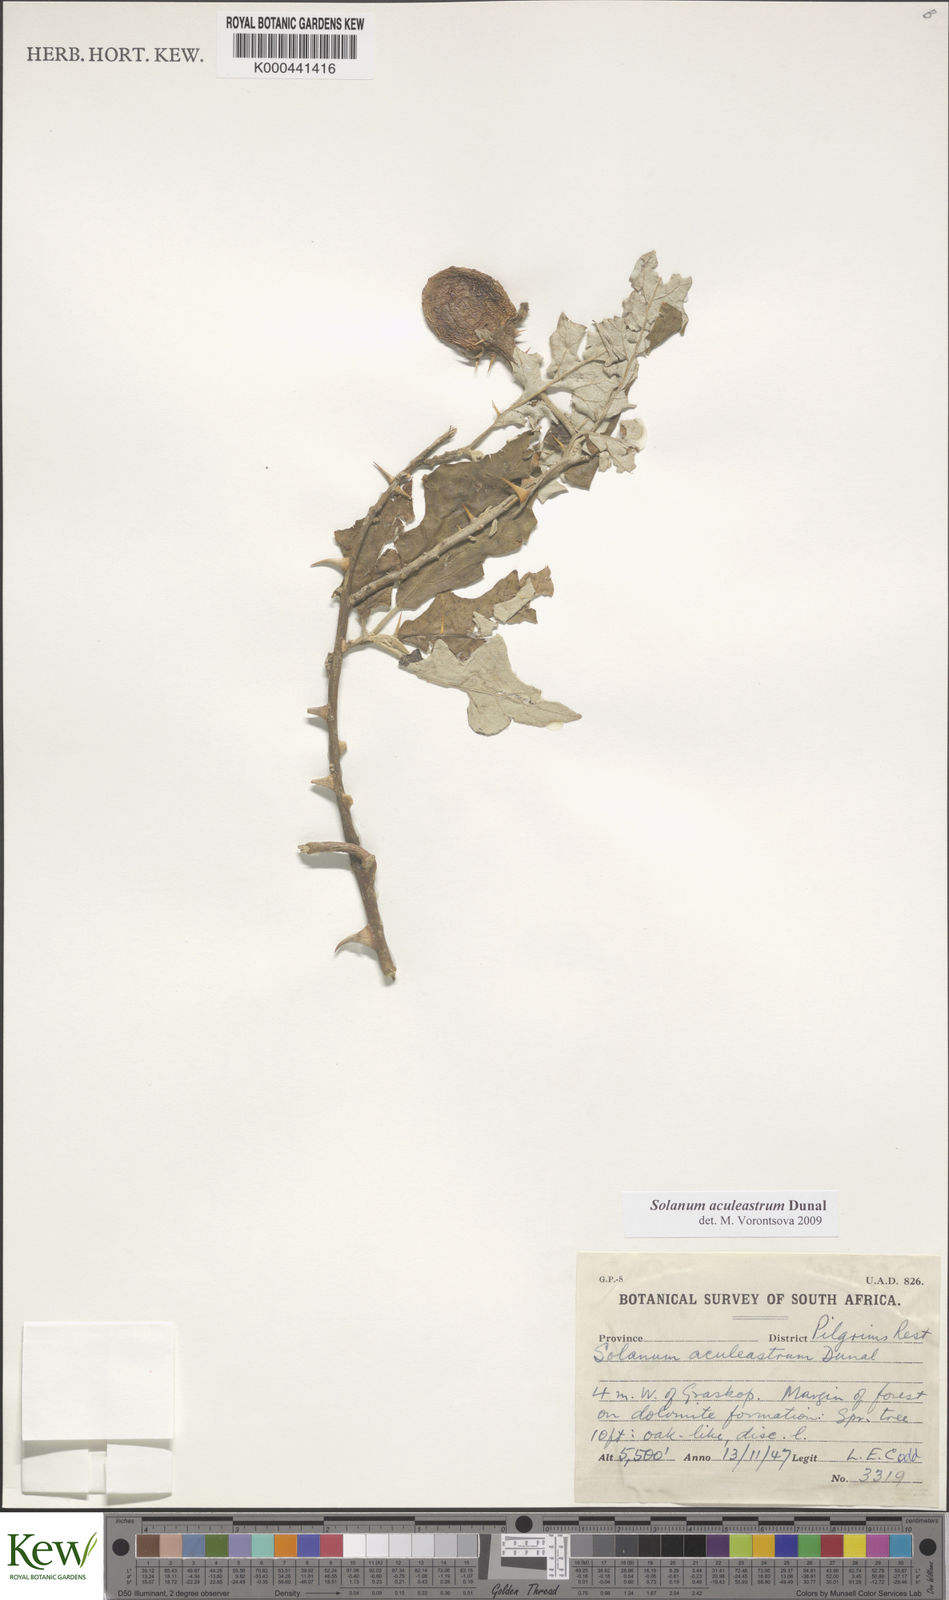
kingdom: Plantae
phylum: Tracheophyta
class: Magnoliopsida
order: Solanales
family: Solanaceae
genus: Solanum
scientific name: Solanum aculeastrum
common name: Goat bitter-apple
